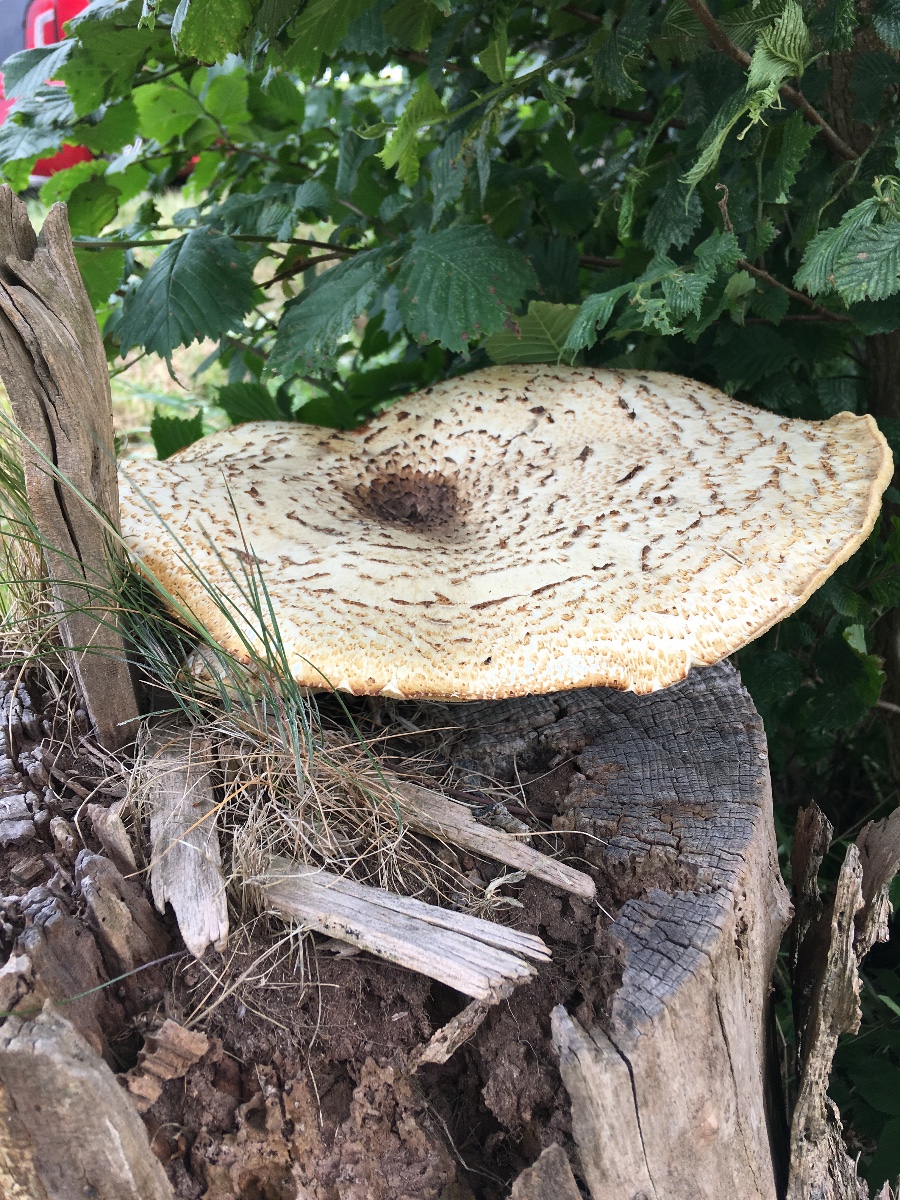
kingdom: Fungi
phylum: Basidiomycota
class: Agaricomycetes
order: Polyporales
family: Polyporaceae
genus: Cerioporus
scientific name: Cerioporus squamosus
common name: skællet stilkporesvamp
